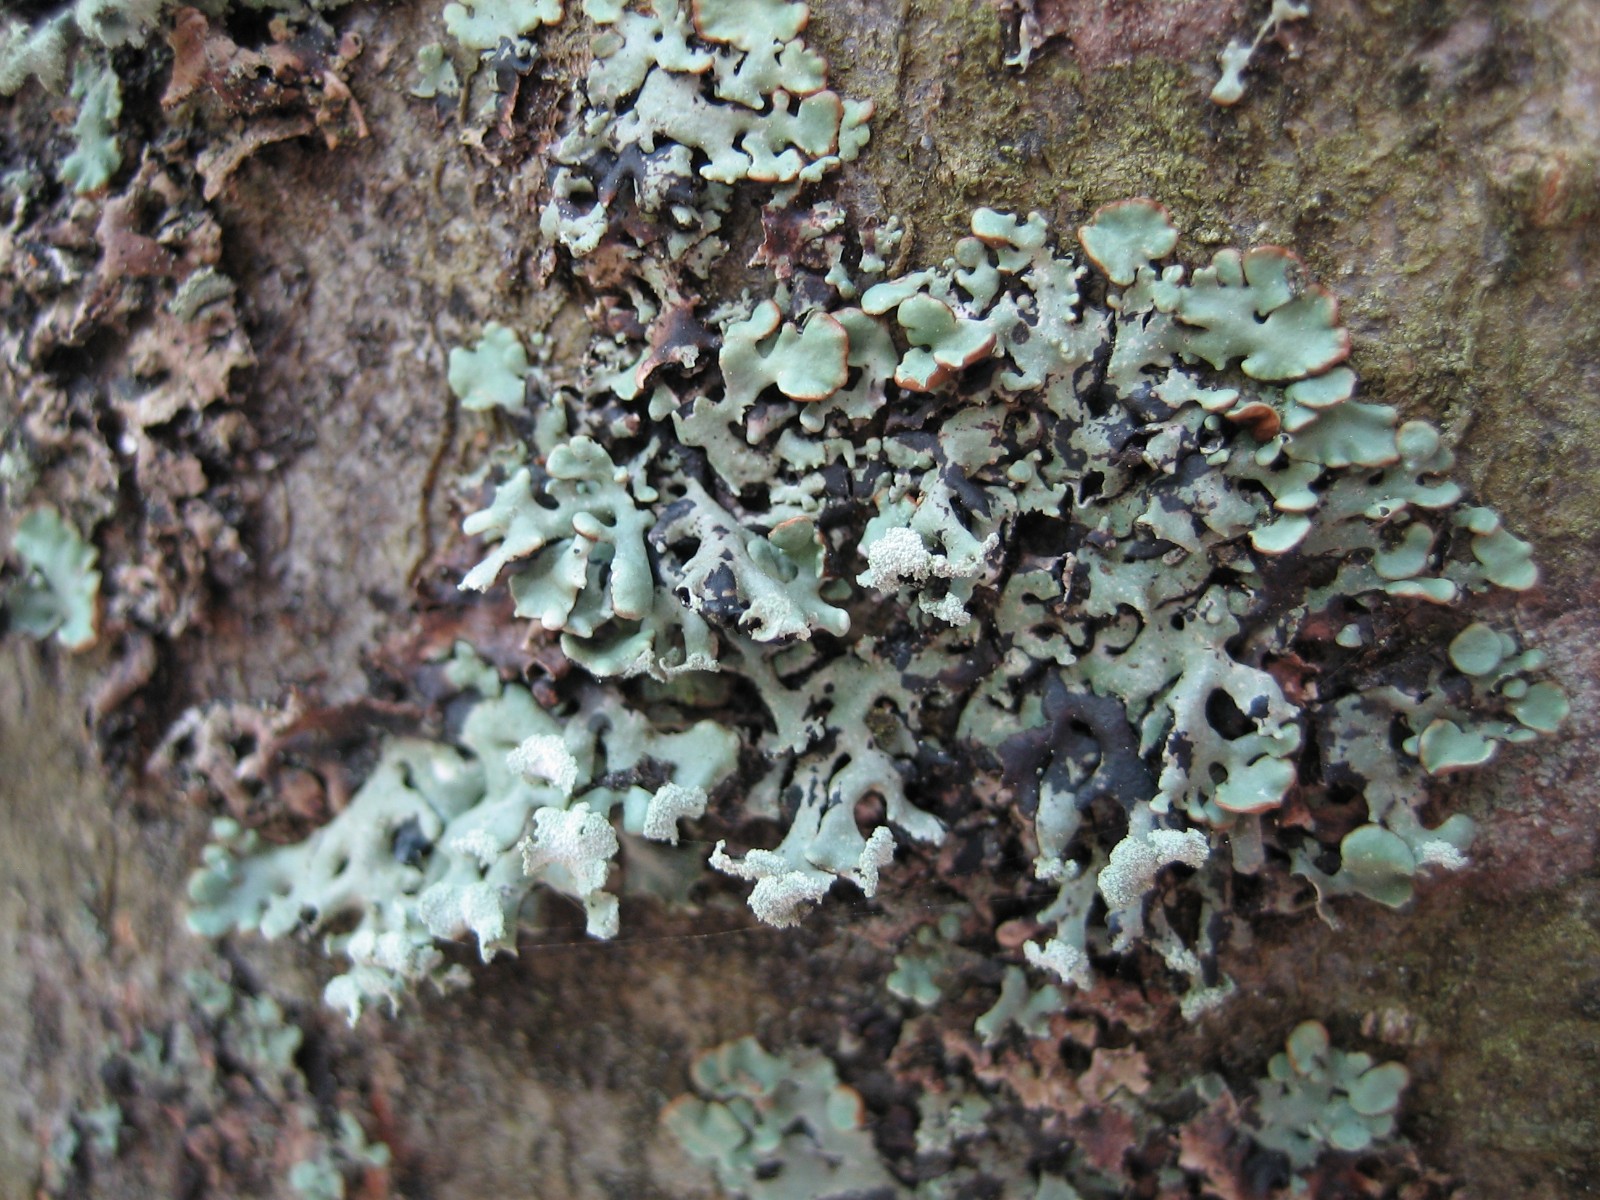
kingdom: Fungi
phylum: Ascomycota
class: Lecanoromycetes
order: Lecanorales
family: Parmeliaceae
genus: Hypogymnia
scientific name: Hypogymnia physodes
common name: almindelig kvistlav
